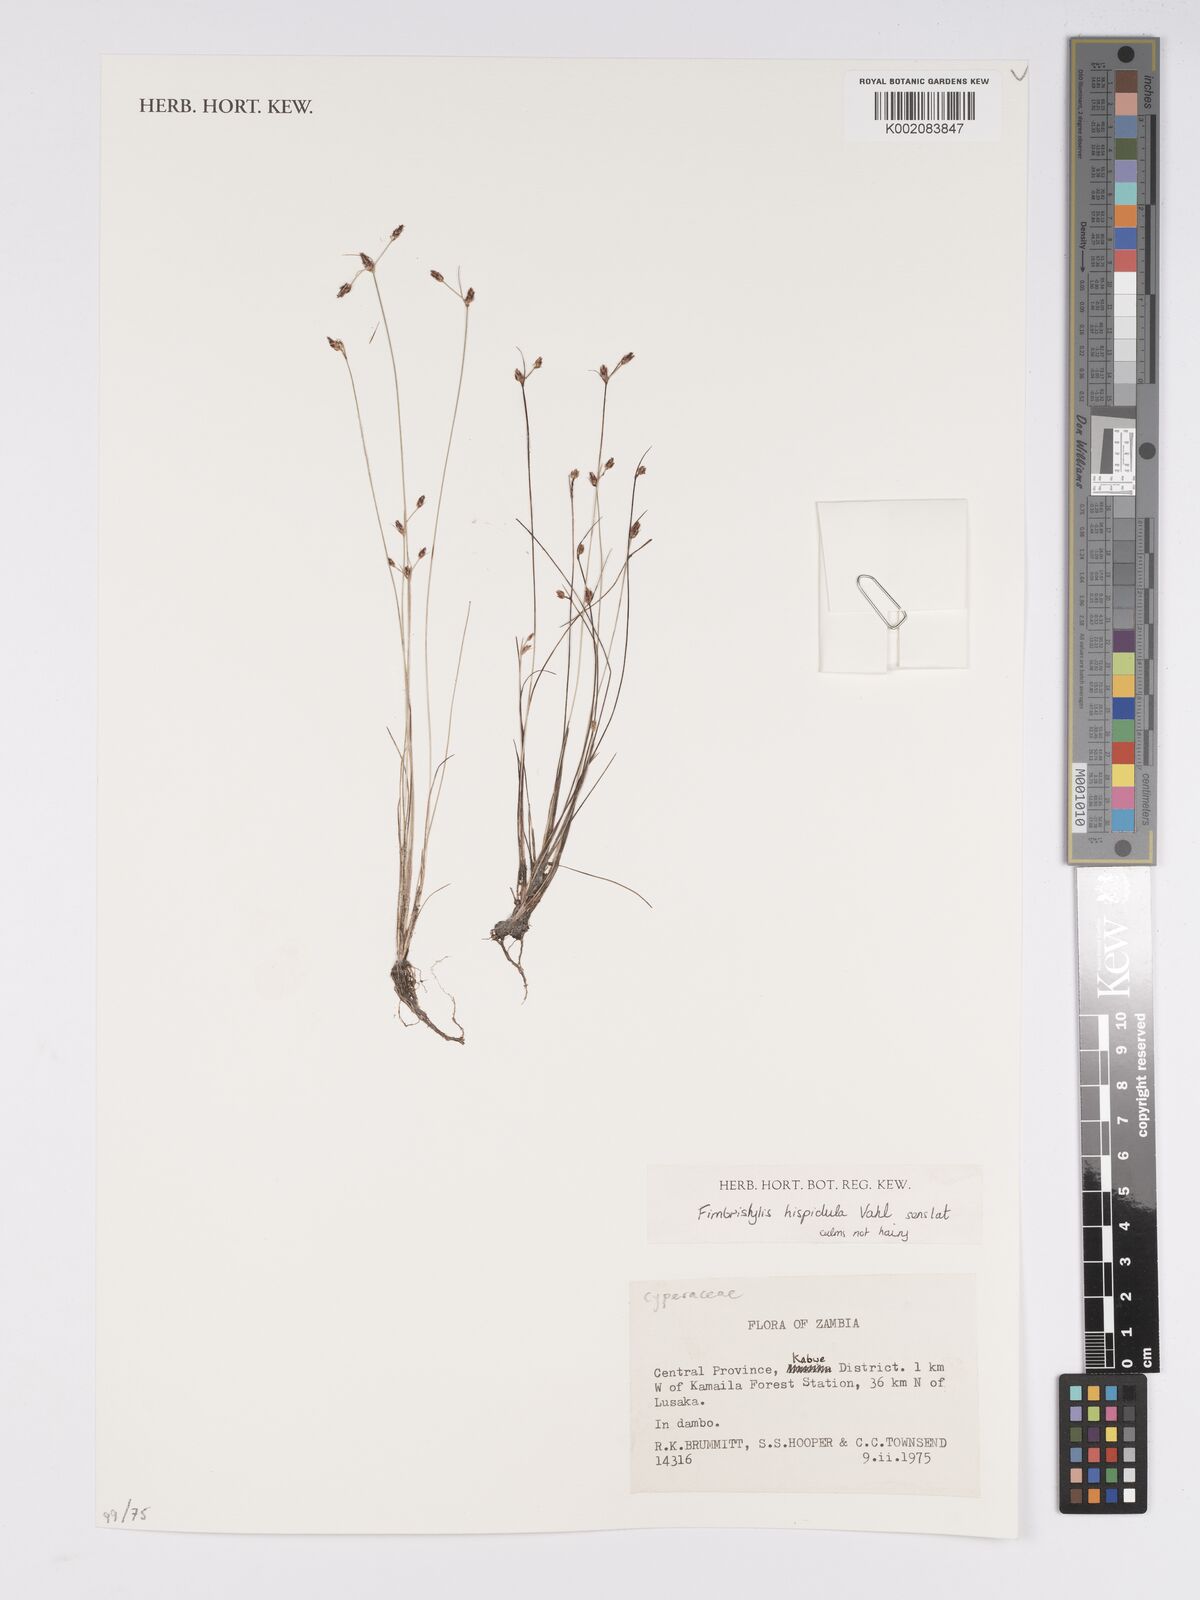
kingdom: Plantae
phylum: Tracheophyta
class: Liliopsida
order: Poales
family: Cyperaceae
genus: Bulbostylis
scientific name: Bulbostylis hispidula
